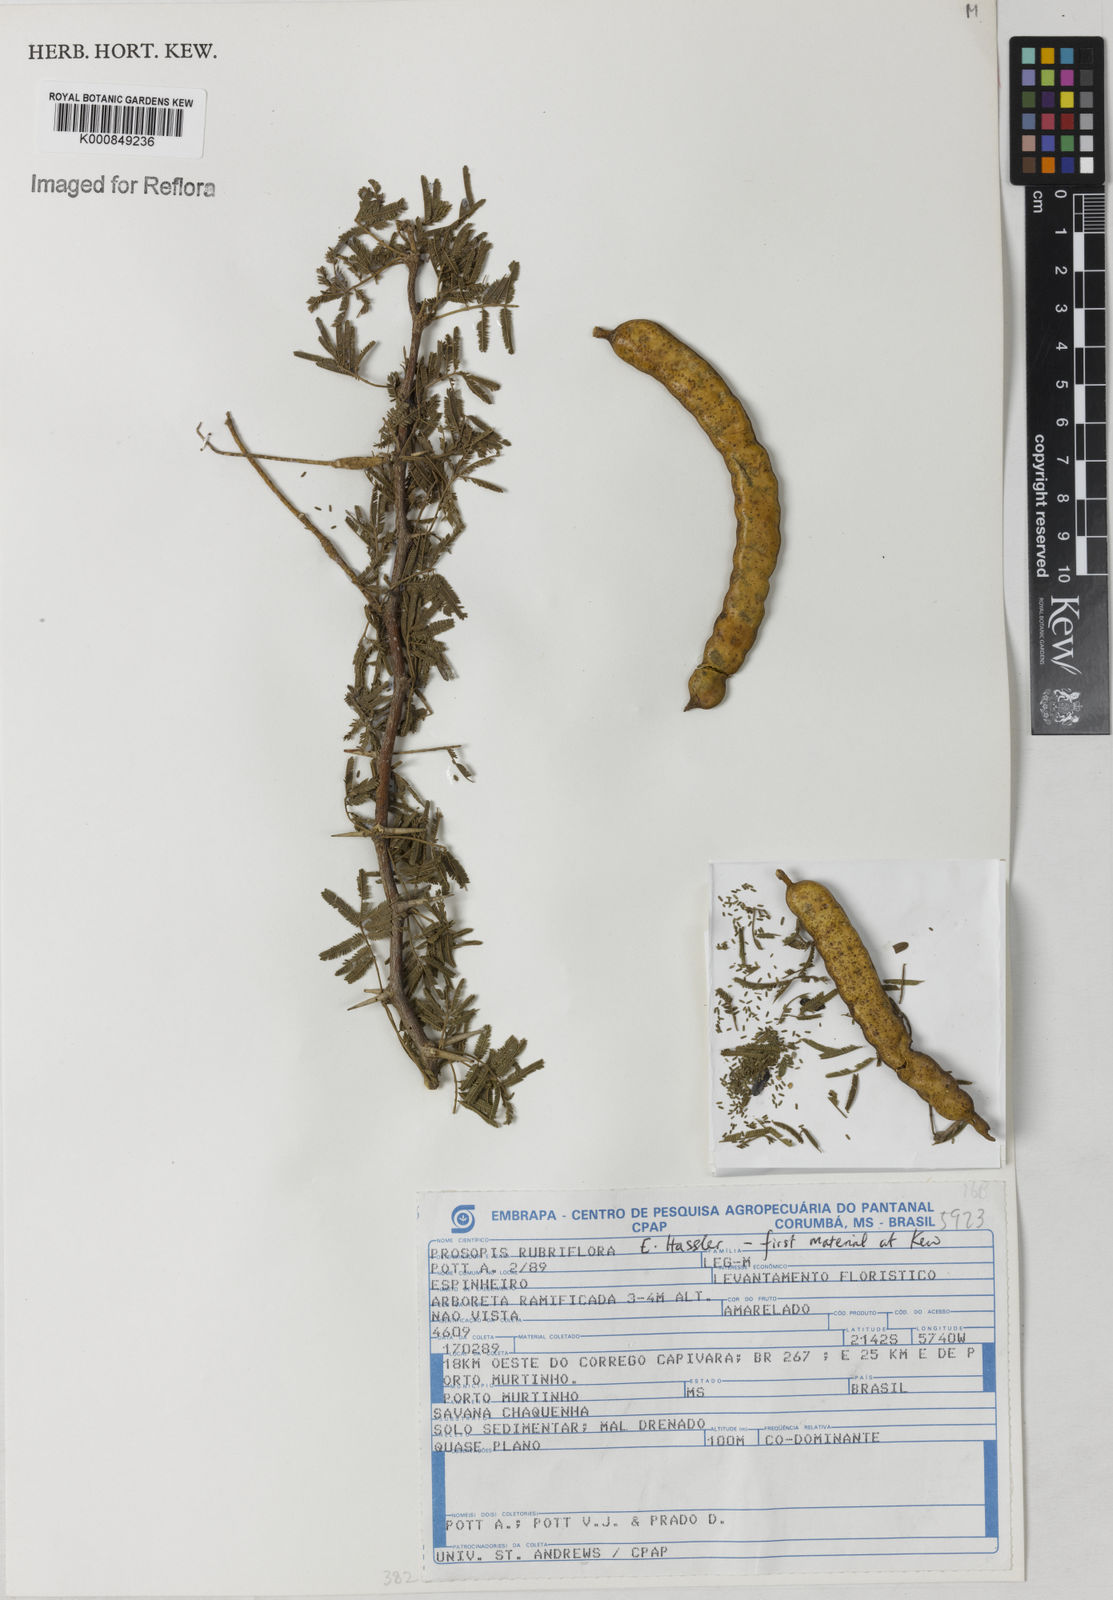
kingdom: Plantae
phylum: Tracheophyta
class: Magnoliopsida
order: Fabales
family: Fabaceae
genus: Prosopis
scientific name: Prosopis rubriflora
